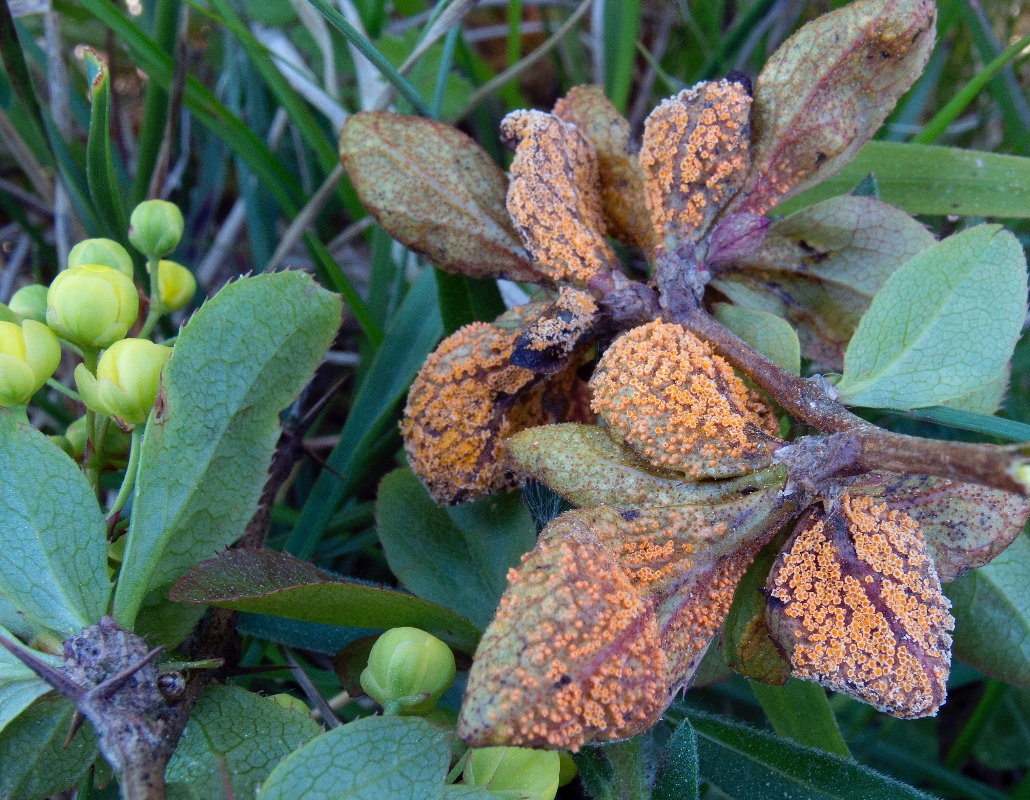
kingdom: Fungi
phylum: Basidiomycota
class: Pucciniomycetes
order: Pucciniales
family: Pucciniaceae
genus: Puccinia
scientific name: Puccinia graminis
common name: græssernes tvecellerust
